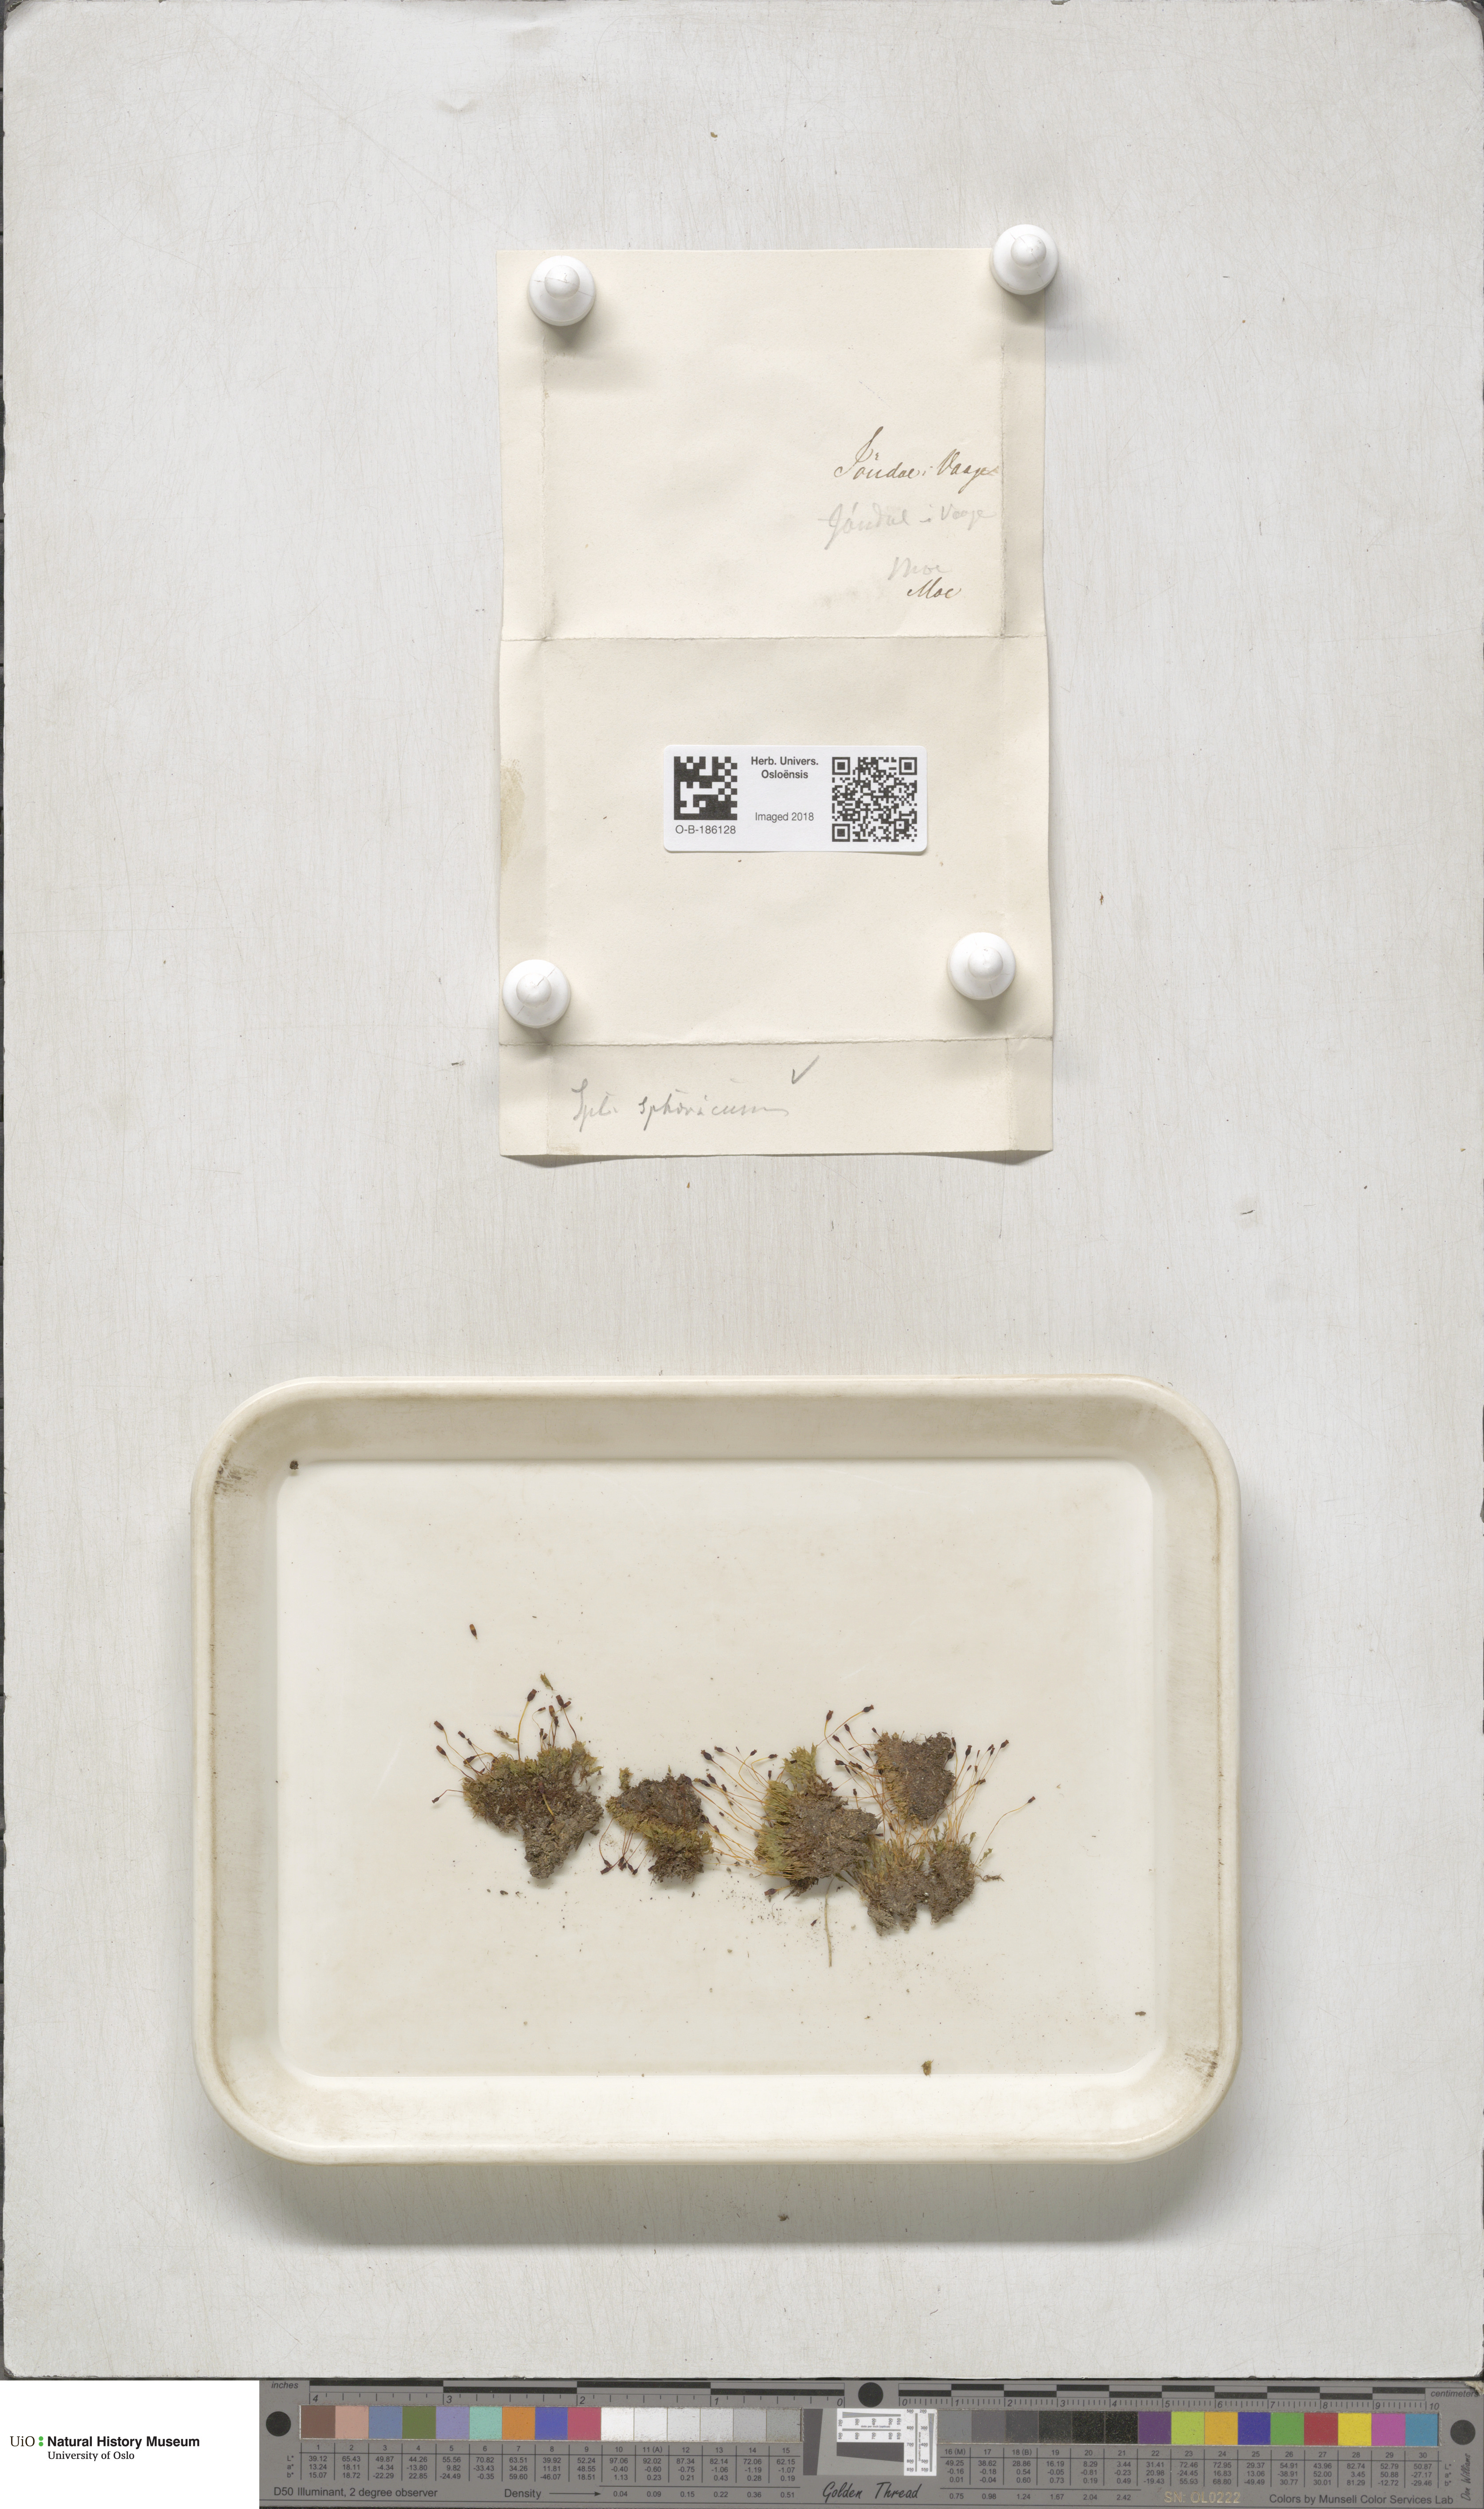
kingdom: Plantae
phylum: Bryophyta
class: Bryopsida
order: Splachnales
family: Splachnaceae
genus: Splachnum
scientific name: Splachnum sphaericum
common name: Round-fruited dung moss
